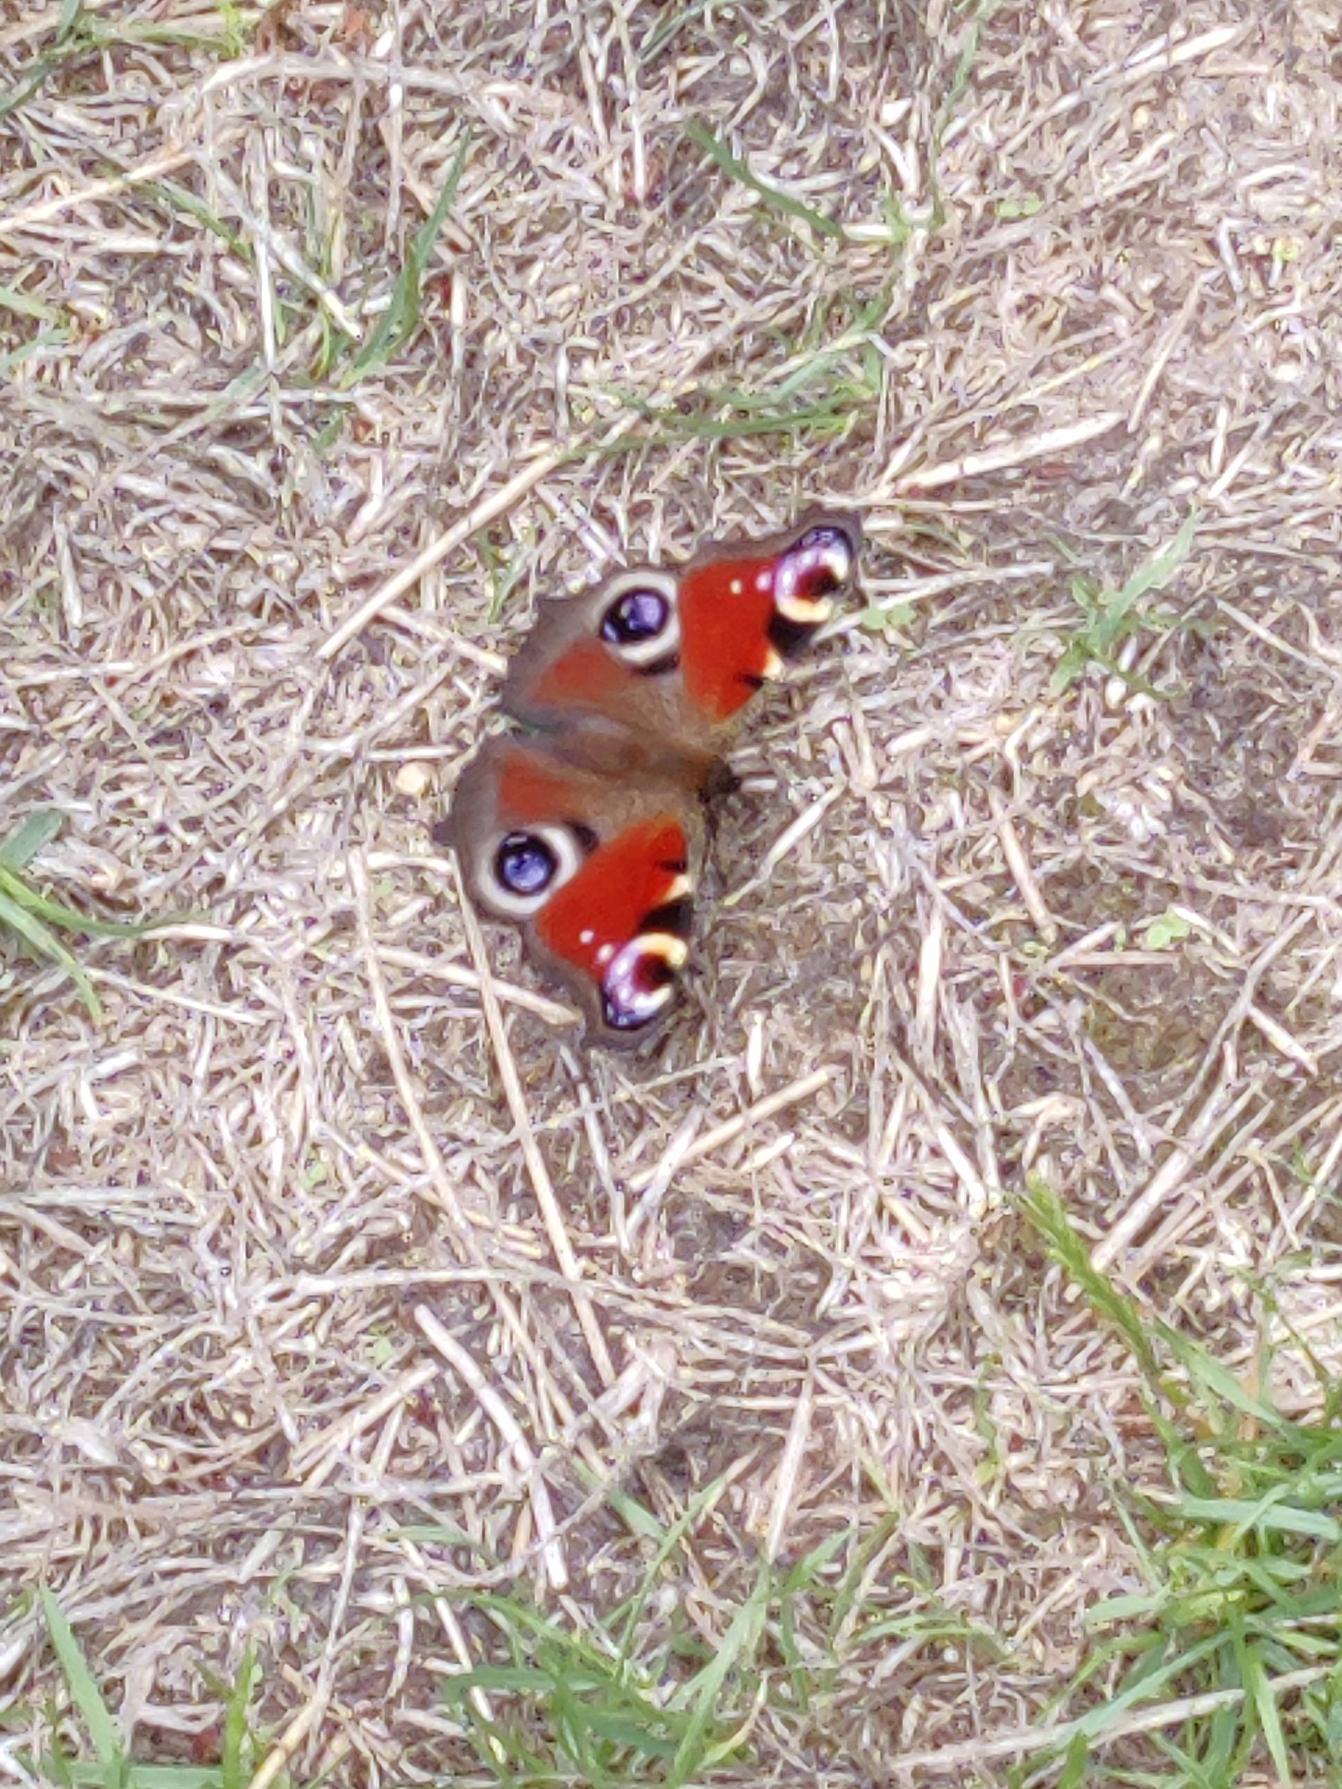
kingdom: Animalia
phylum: Arthropoda
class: Insecta
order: Lepidoptera
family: Nymphalidae
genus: Aglais
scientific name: Aglais io
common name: Dagpåfugleøje
